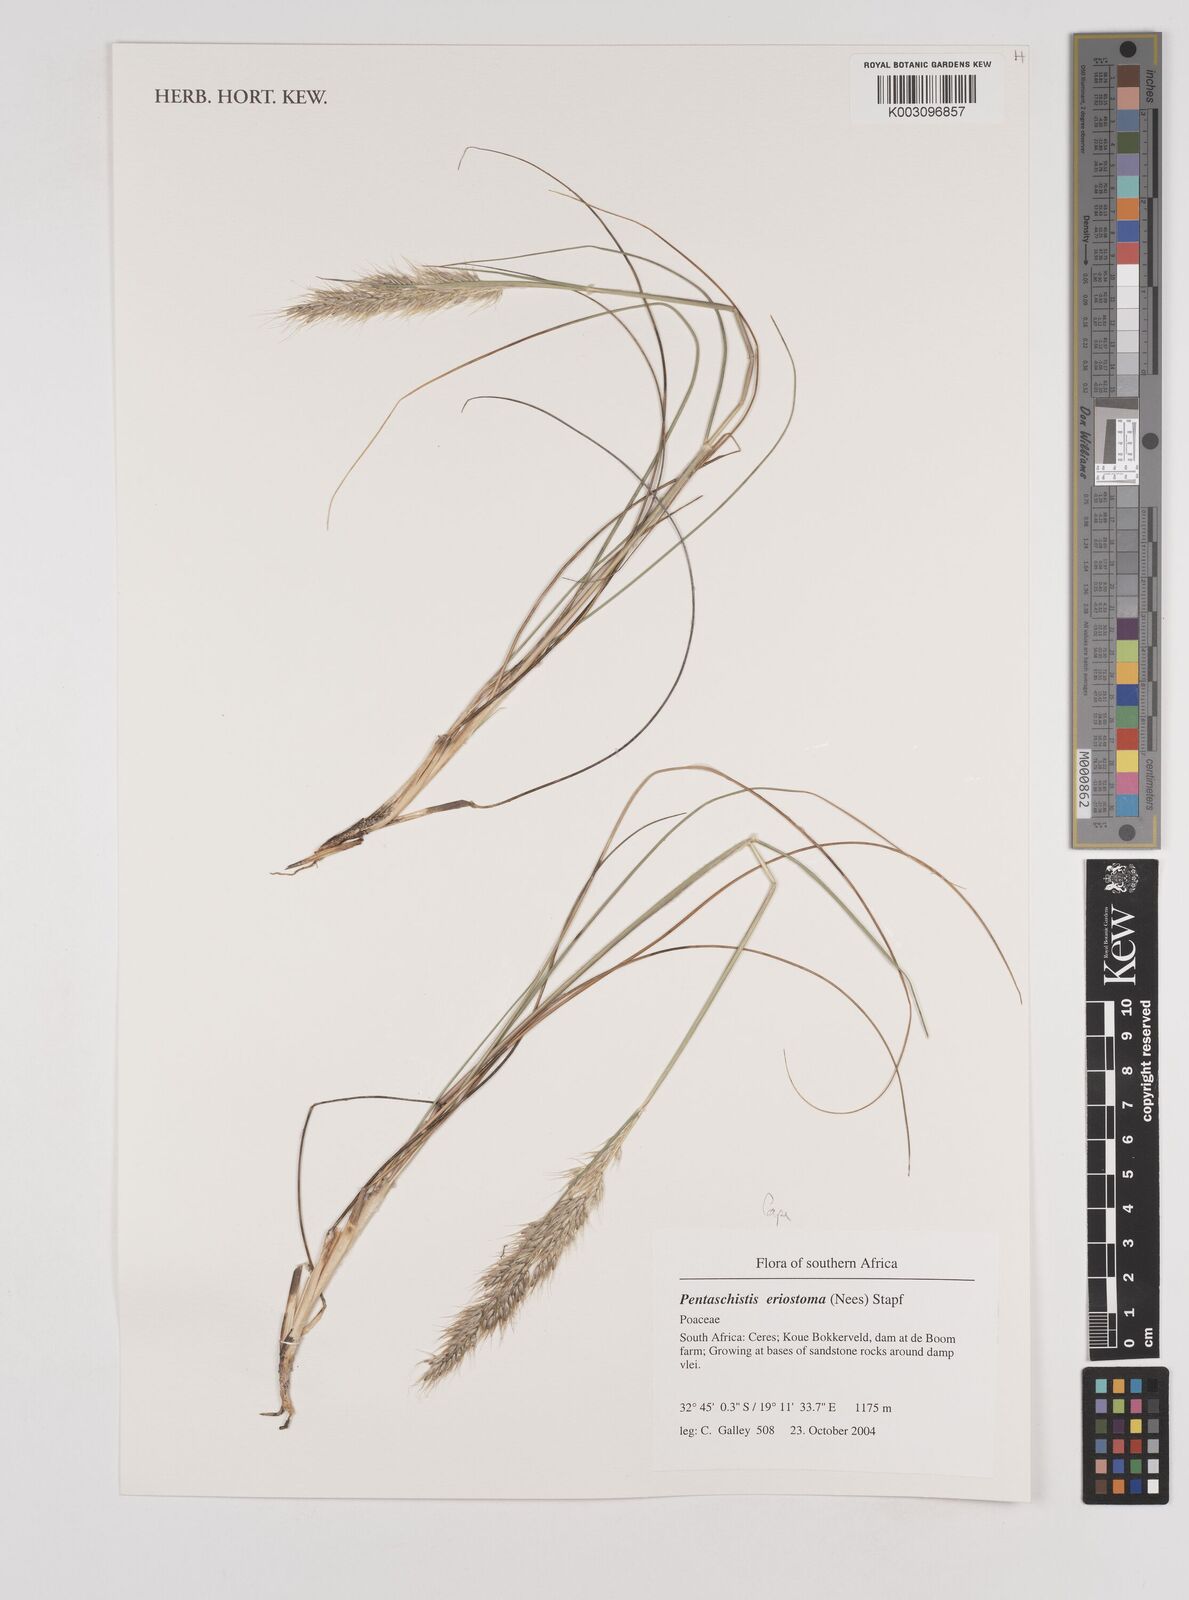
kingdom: Plantae
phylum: Tracheophyta
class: Liliopsida
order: Poales
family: Poaceae
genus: Pentameris
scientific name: Pentameris eriostoma
